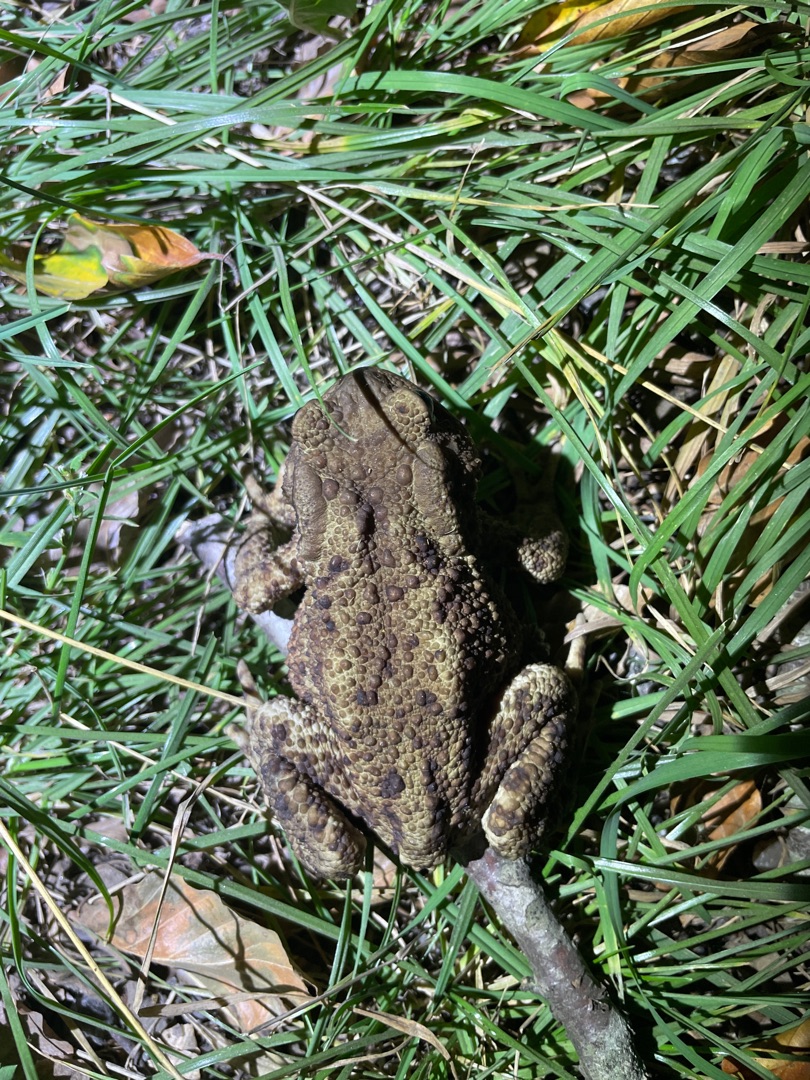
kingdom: Animalia
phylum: Chordata
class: Amphibia
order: Anura
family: Bufonidae
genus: Bufo
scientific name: Bufo bufo
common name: Skrubtudse
